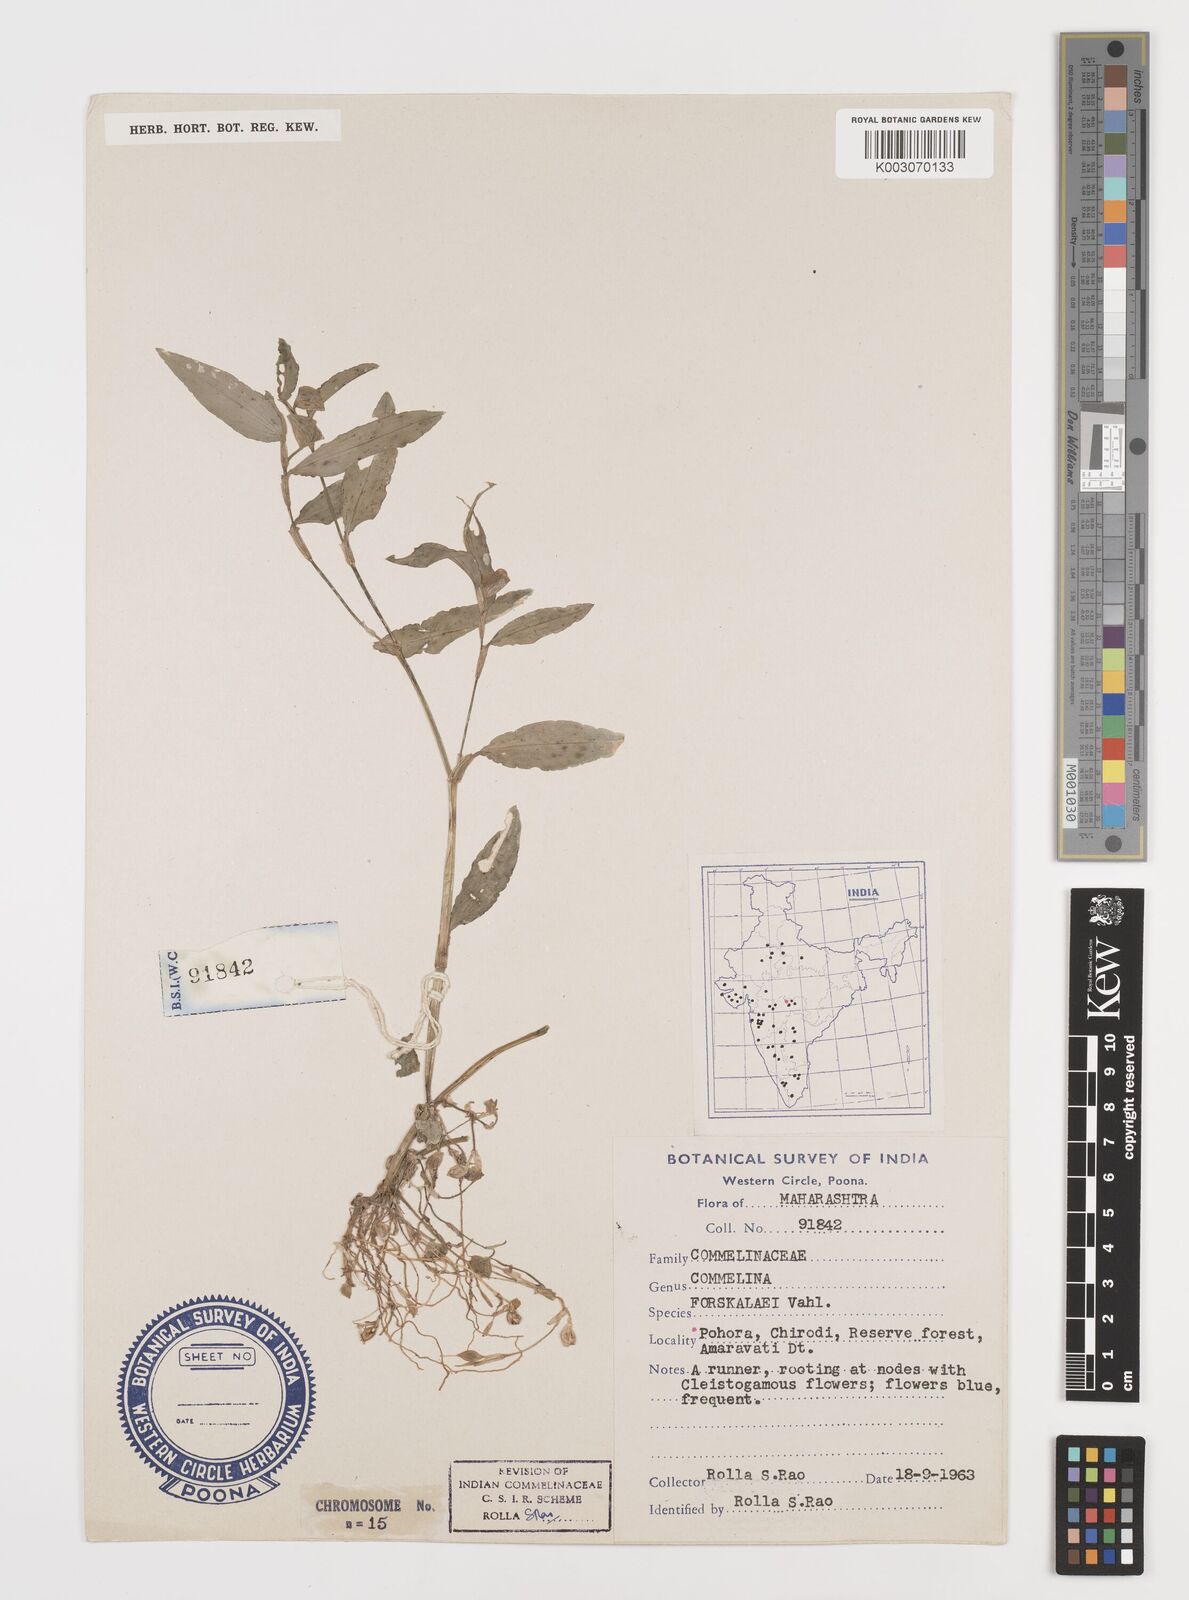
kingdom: Plantae
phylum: Tracheophyta
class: Liliopsida
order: Commelinales
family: Commelinaceae
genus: Commelina
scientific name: Commelina forskaolii
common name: Rat's ear
